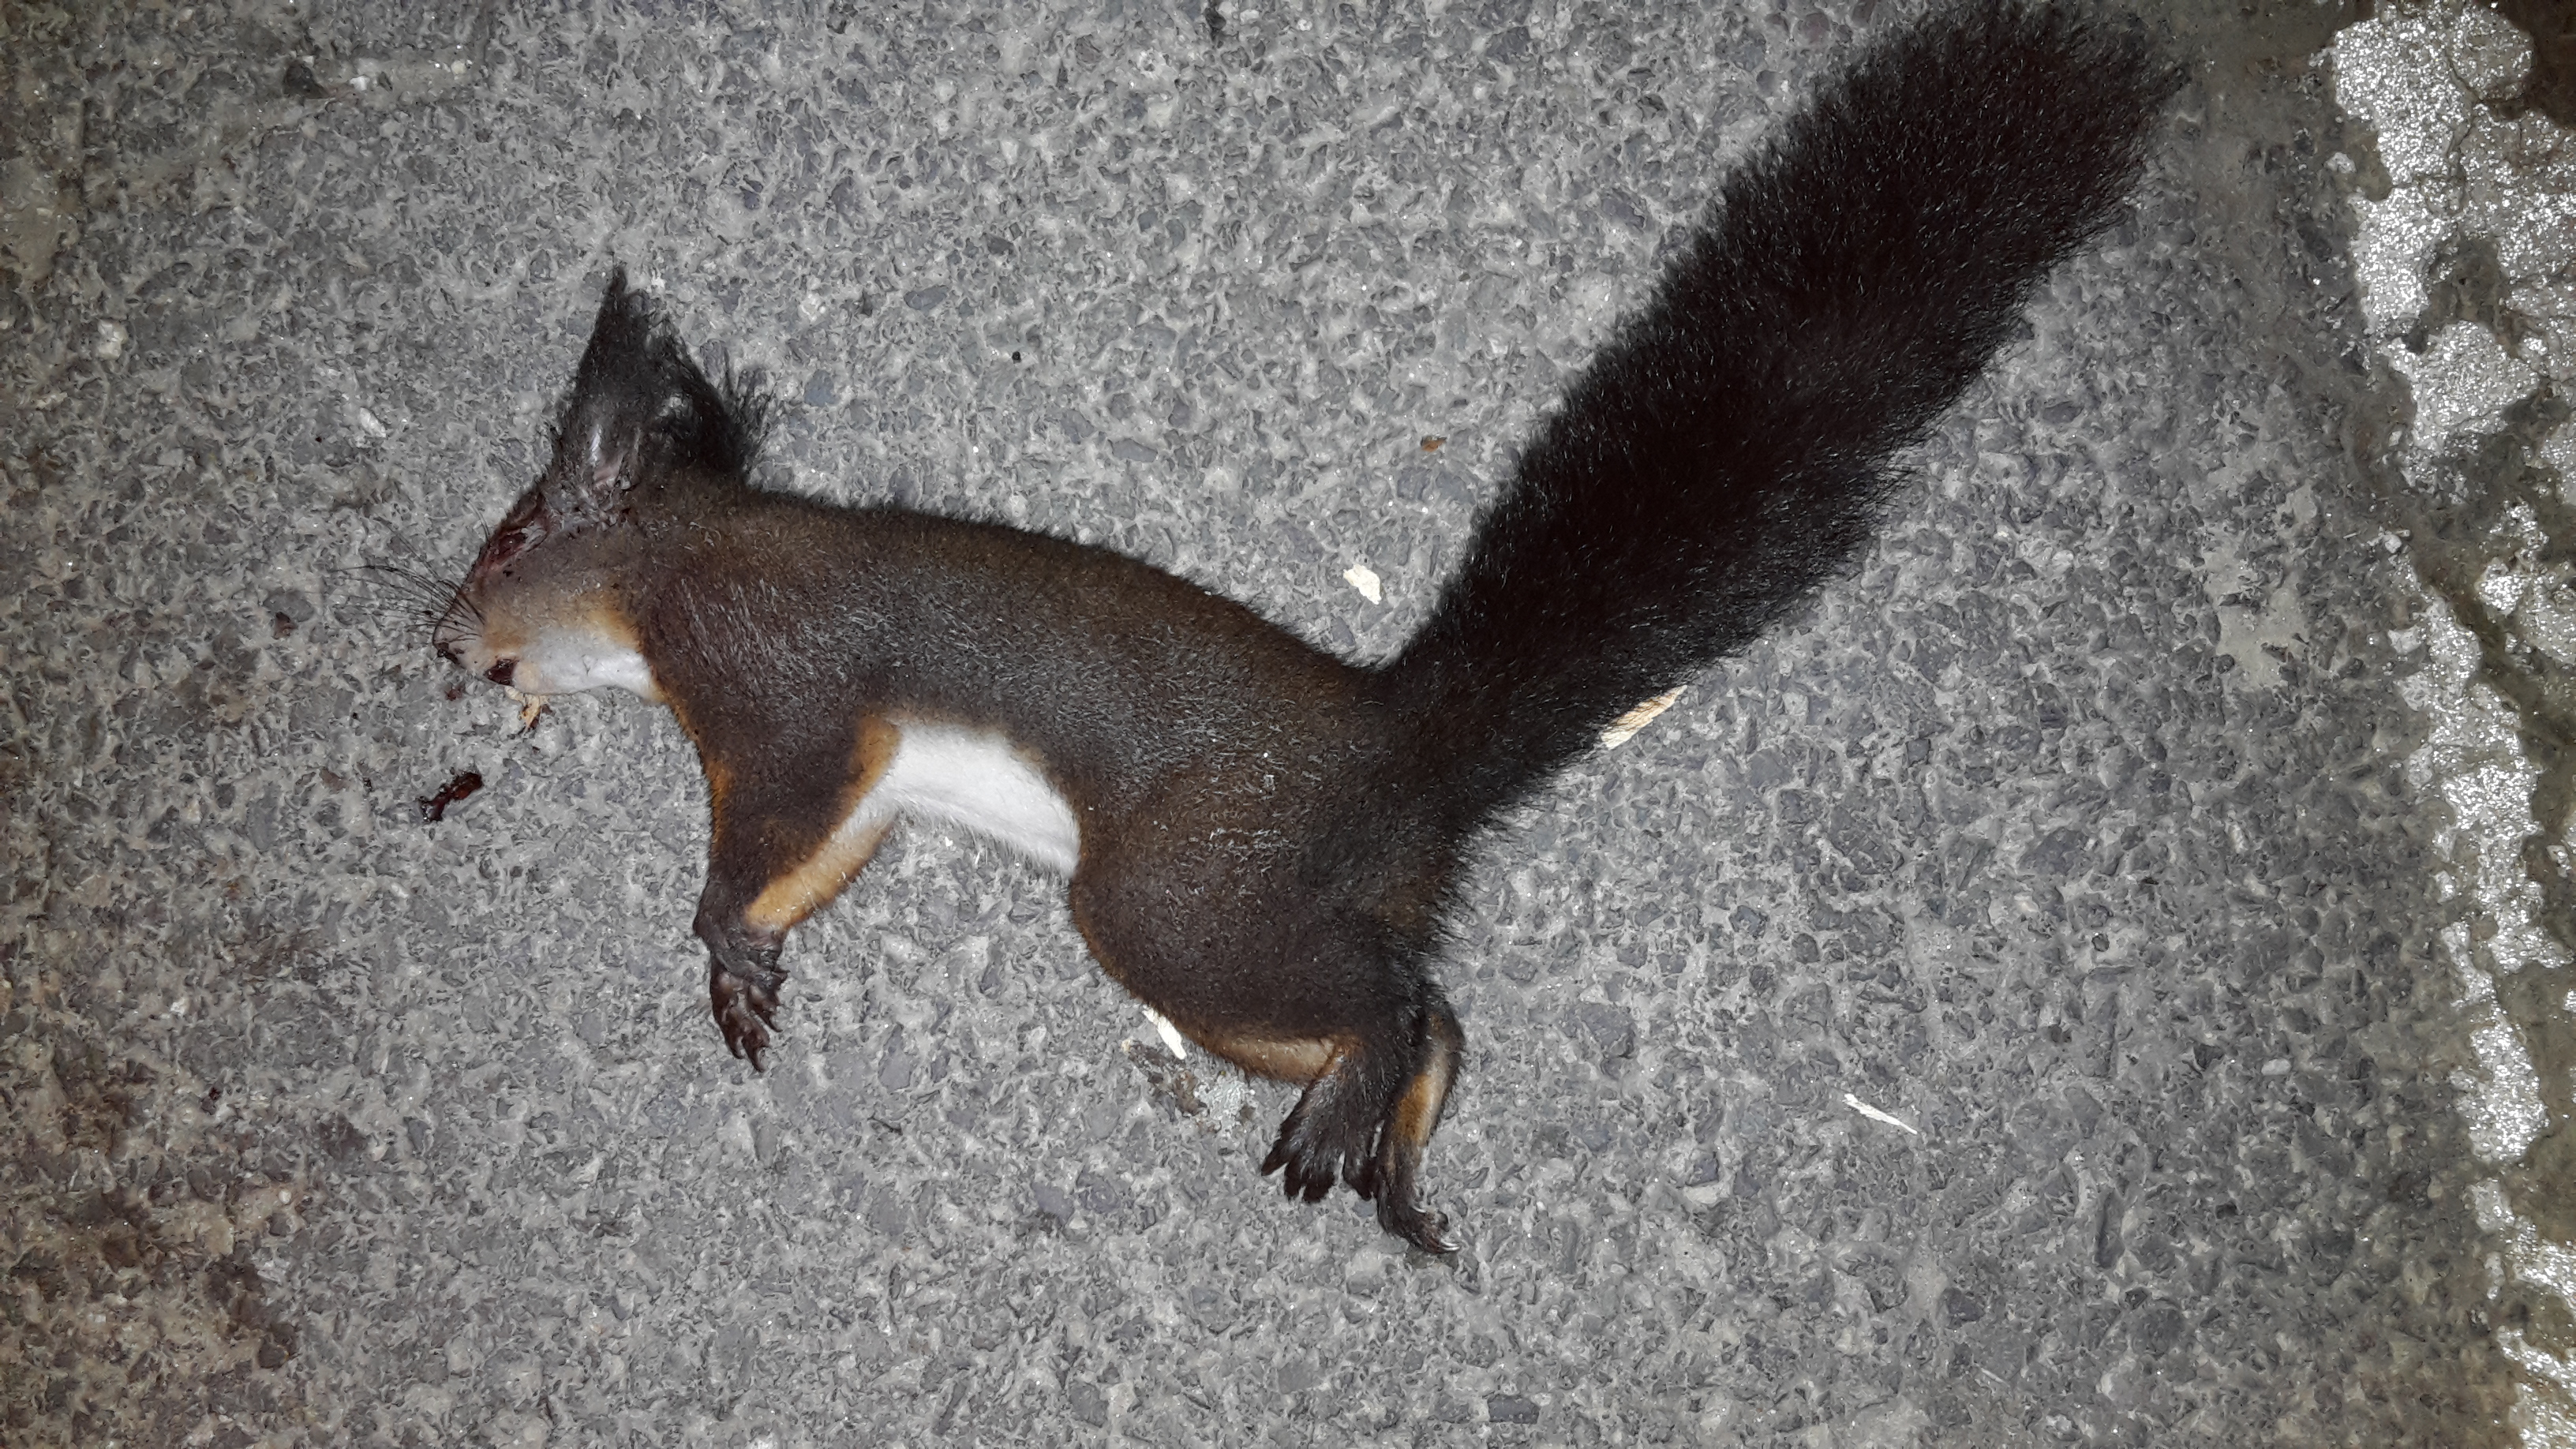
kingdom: Animalia
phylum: Chordata
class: Mammalia
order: Rodentia
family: Sciuridae
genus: Sciurus
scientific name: Sciurus vulgaris
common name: Eurasian red squirrel
